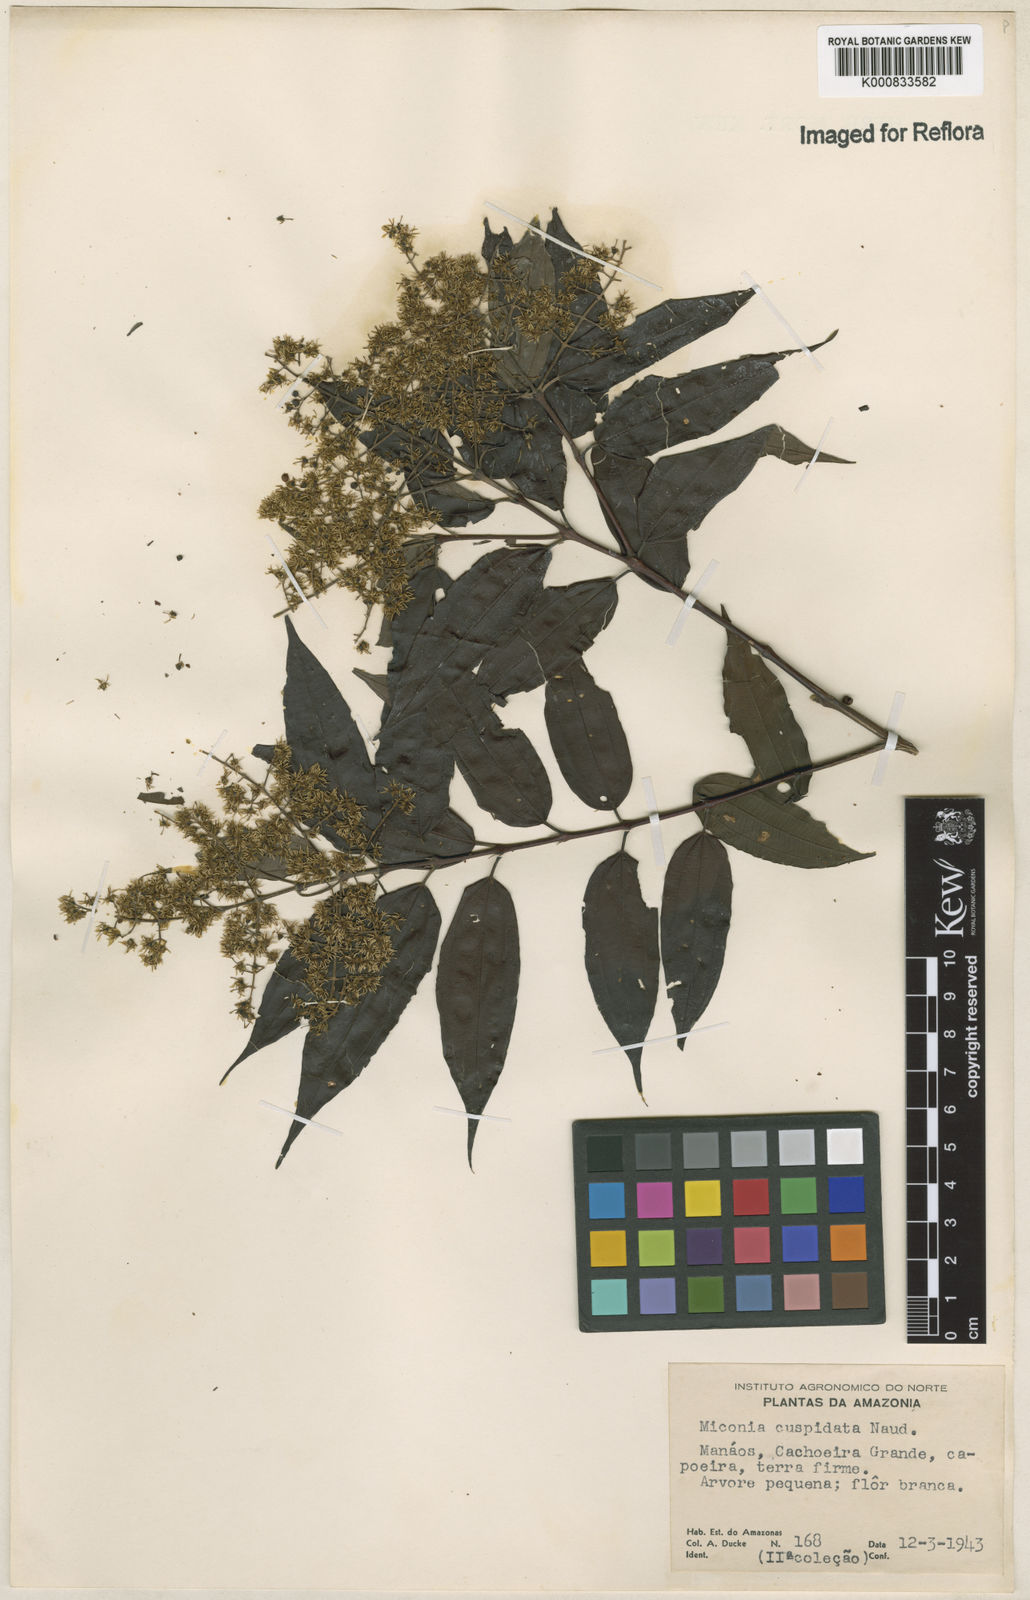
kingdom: Plantae
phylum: Tracheophyta
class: Magnoliopsida
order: Myrtales
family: Melastomataceae
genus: Miconia
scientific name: Miconia cuspidata
